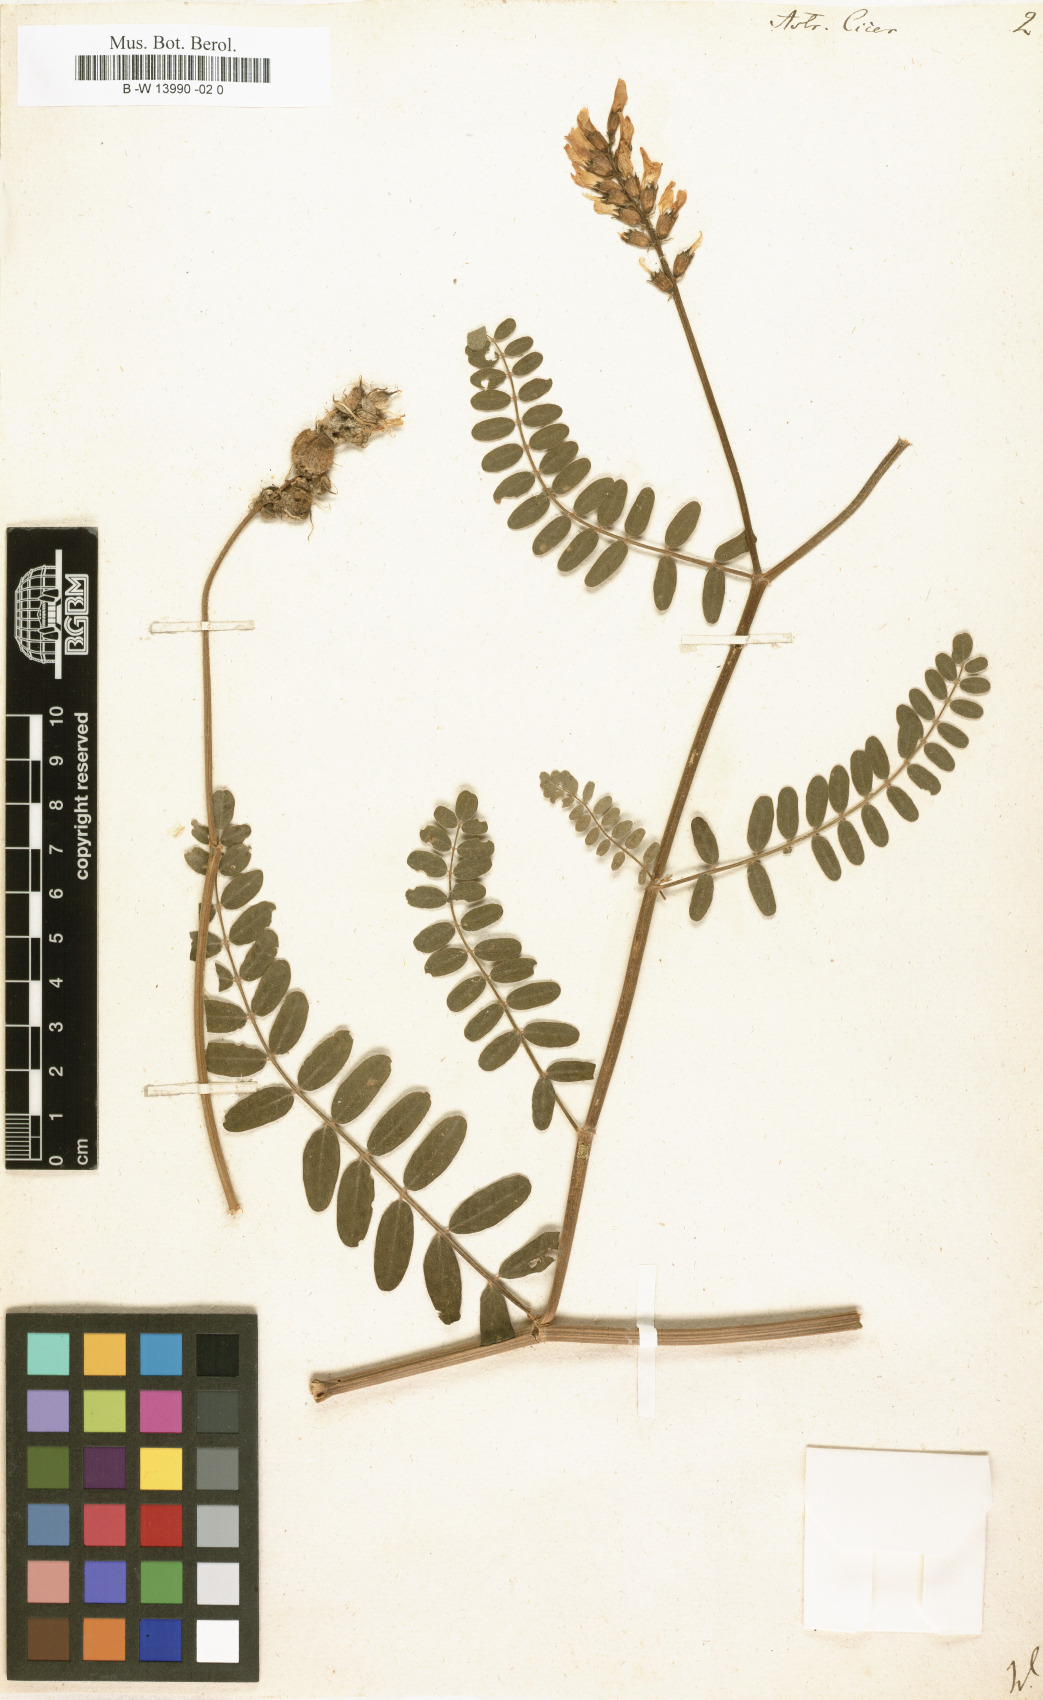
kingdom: Plantae
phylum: Tracheophyta
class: Magnoliopsida
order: Fabales
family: Fabaceae
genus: Astragalus
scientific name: Astragalus cicer
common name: Chick-pea milk-vetch
